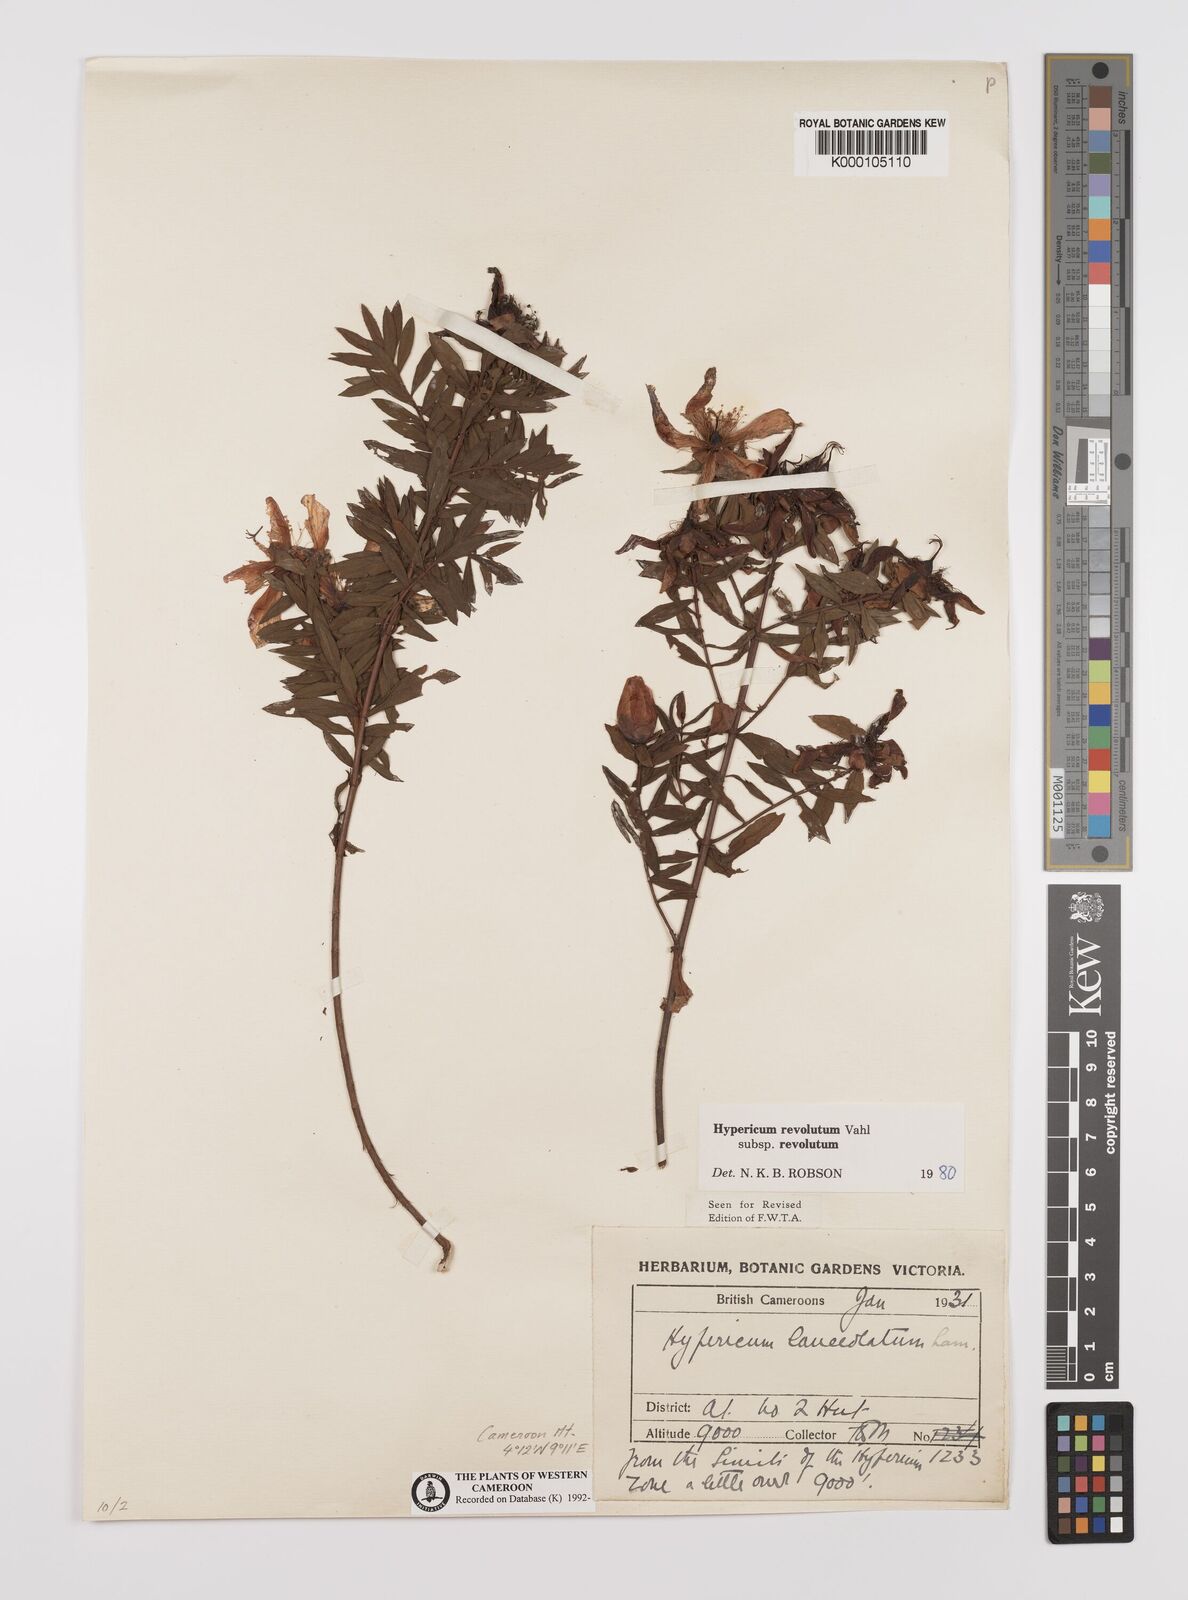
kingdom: Plantae
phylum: Tracheophyta
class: Magnoliopsida
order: Malpighiales
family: Hypericaceae
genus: Hypericum
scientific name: Hypericum revolutum
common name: Curry bush
